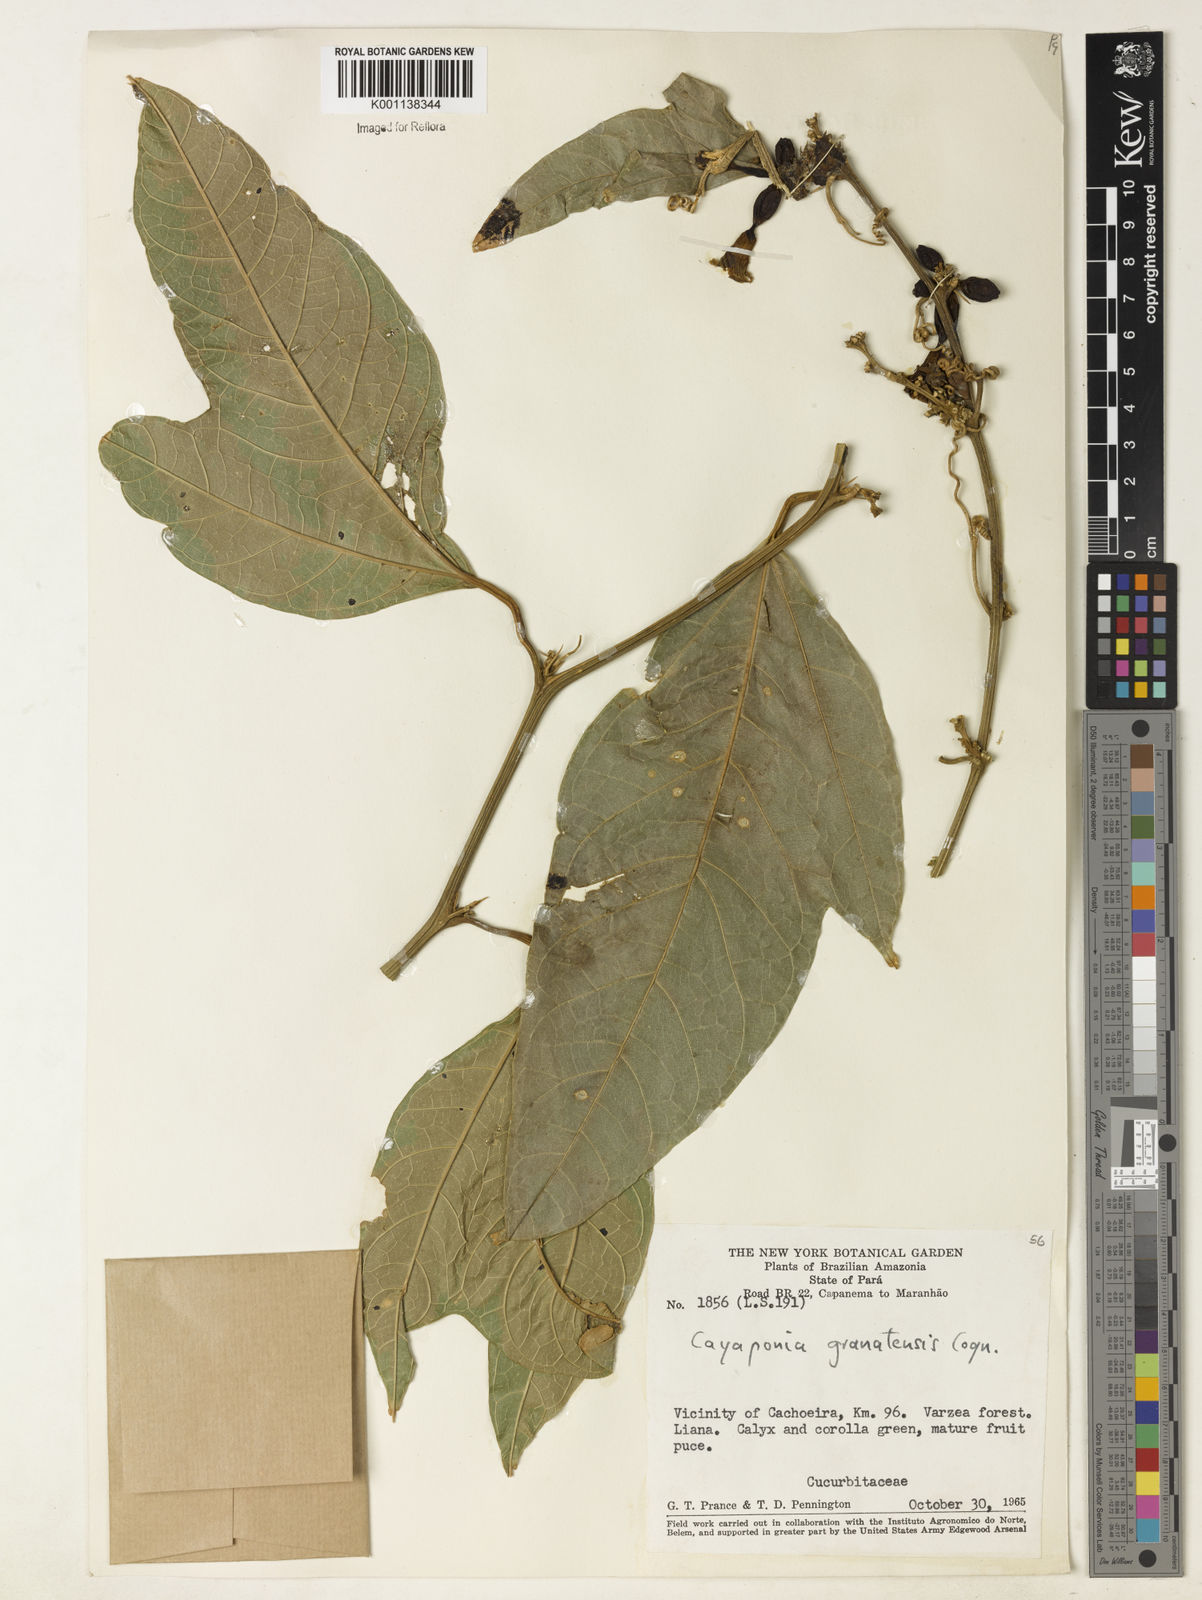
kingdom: Plantae
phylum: Tracheophyta
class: Magnoliopsida
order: Cucurbitales
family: Cucurbitaceae
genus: Cayaponia
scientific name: Cayaponia granatensis
